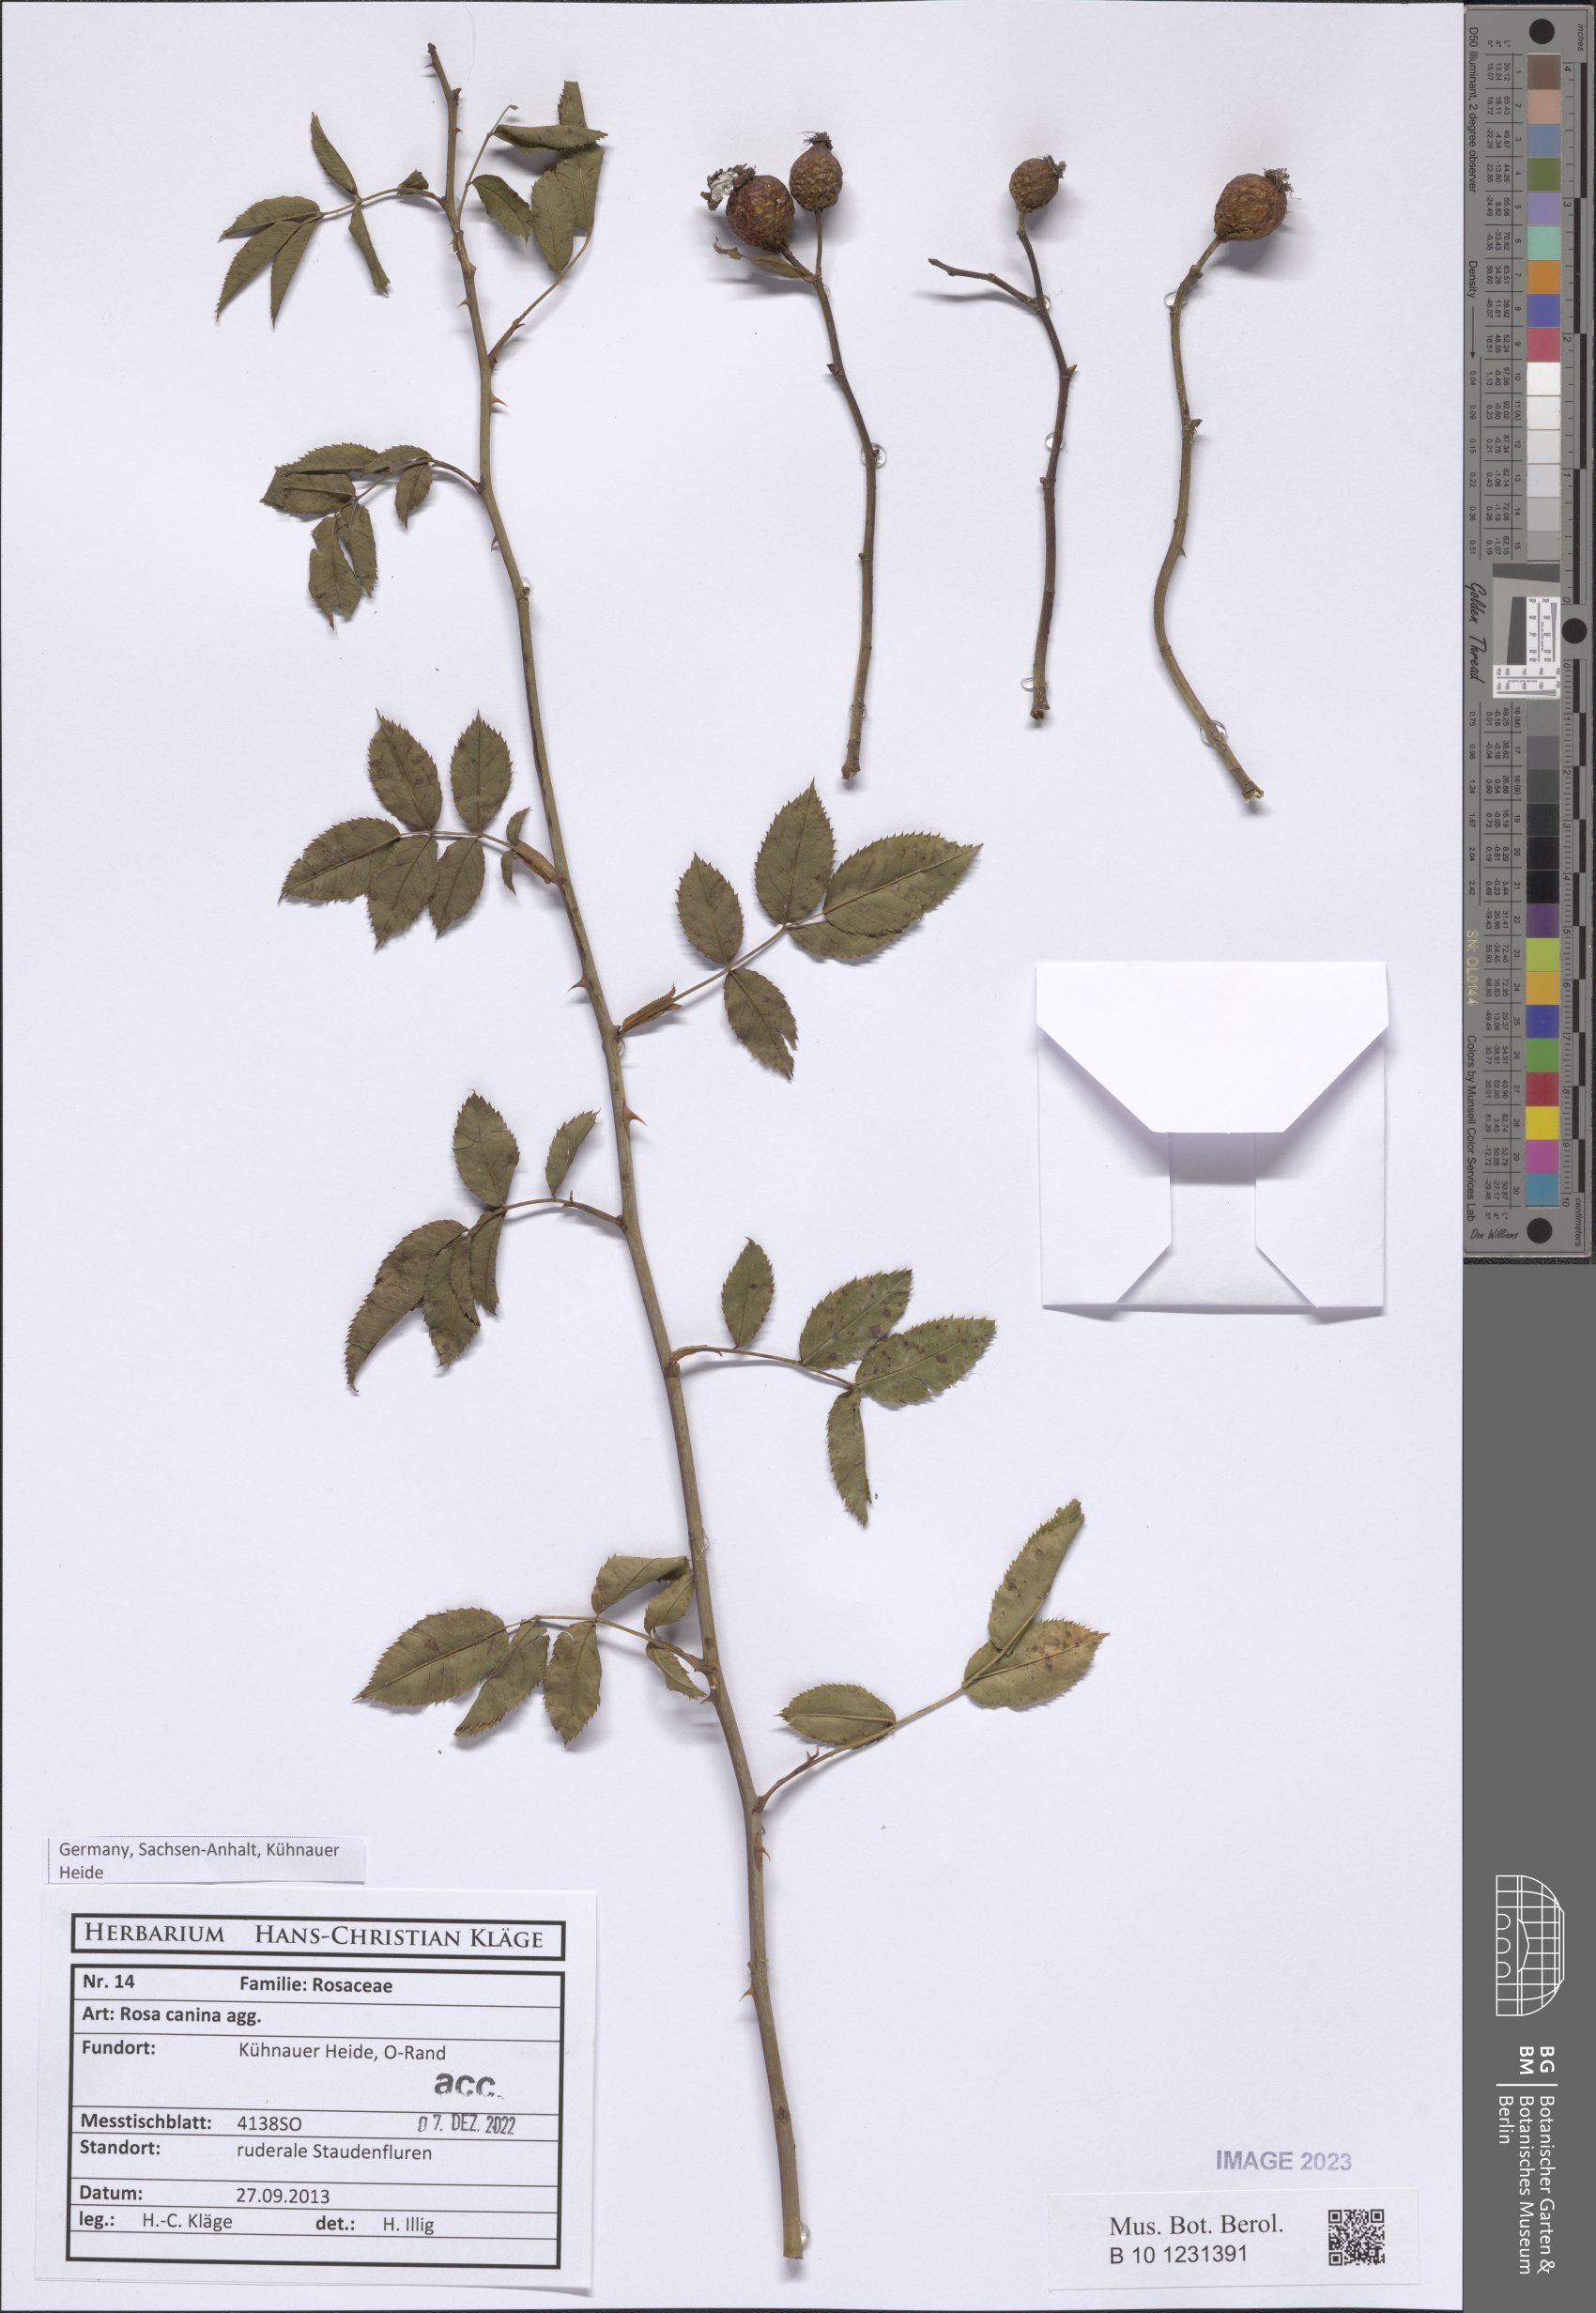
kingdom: Plantae
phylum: Tracheophyta
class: Magnoliopsida
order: Rosales
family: Rosaceae
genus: Rosa
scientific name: Rosa canina
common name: Dog rose
